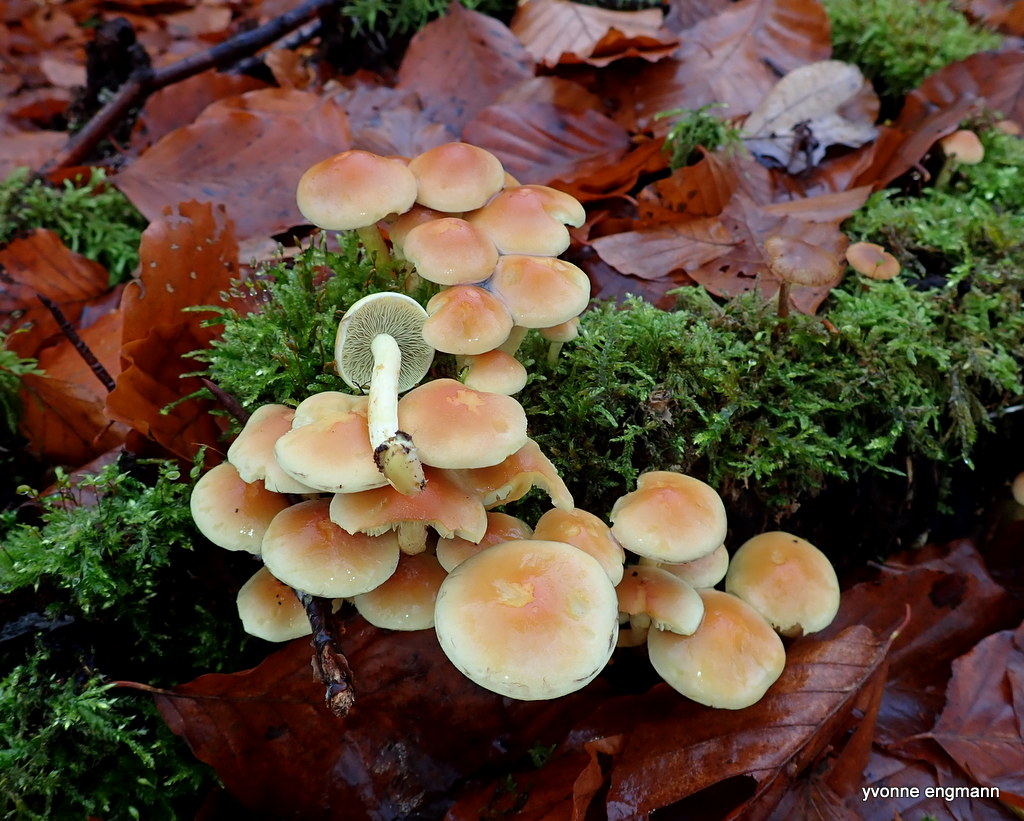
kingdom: Fungi
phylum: Basidiomycota
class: Agaricomycetes
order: Agaricales
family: Strophariaceae
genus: Hypholoma
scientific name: Hypholoma fasciculare
